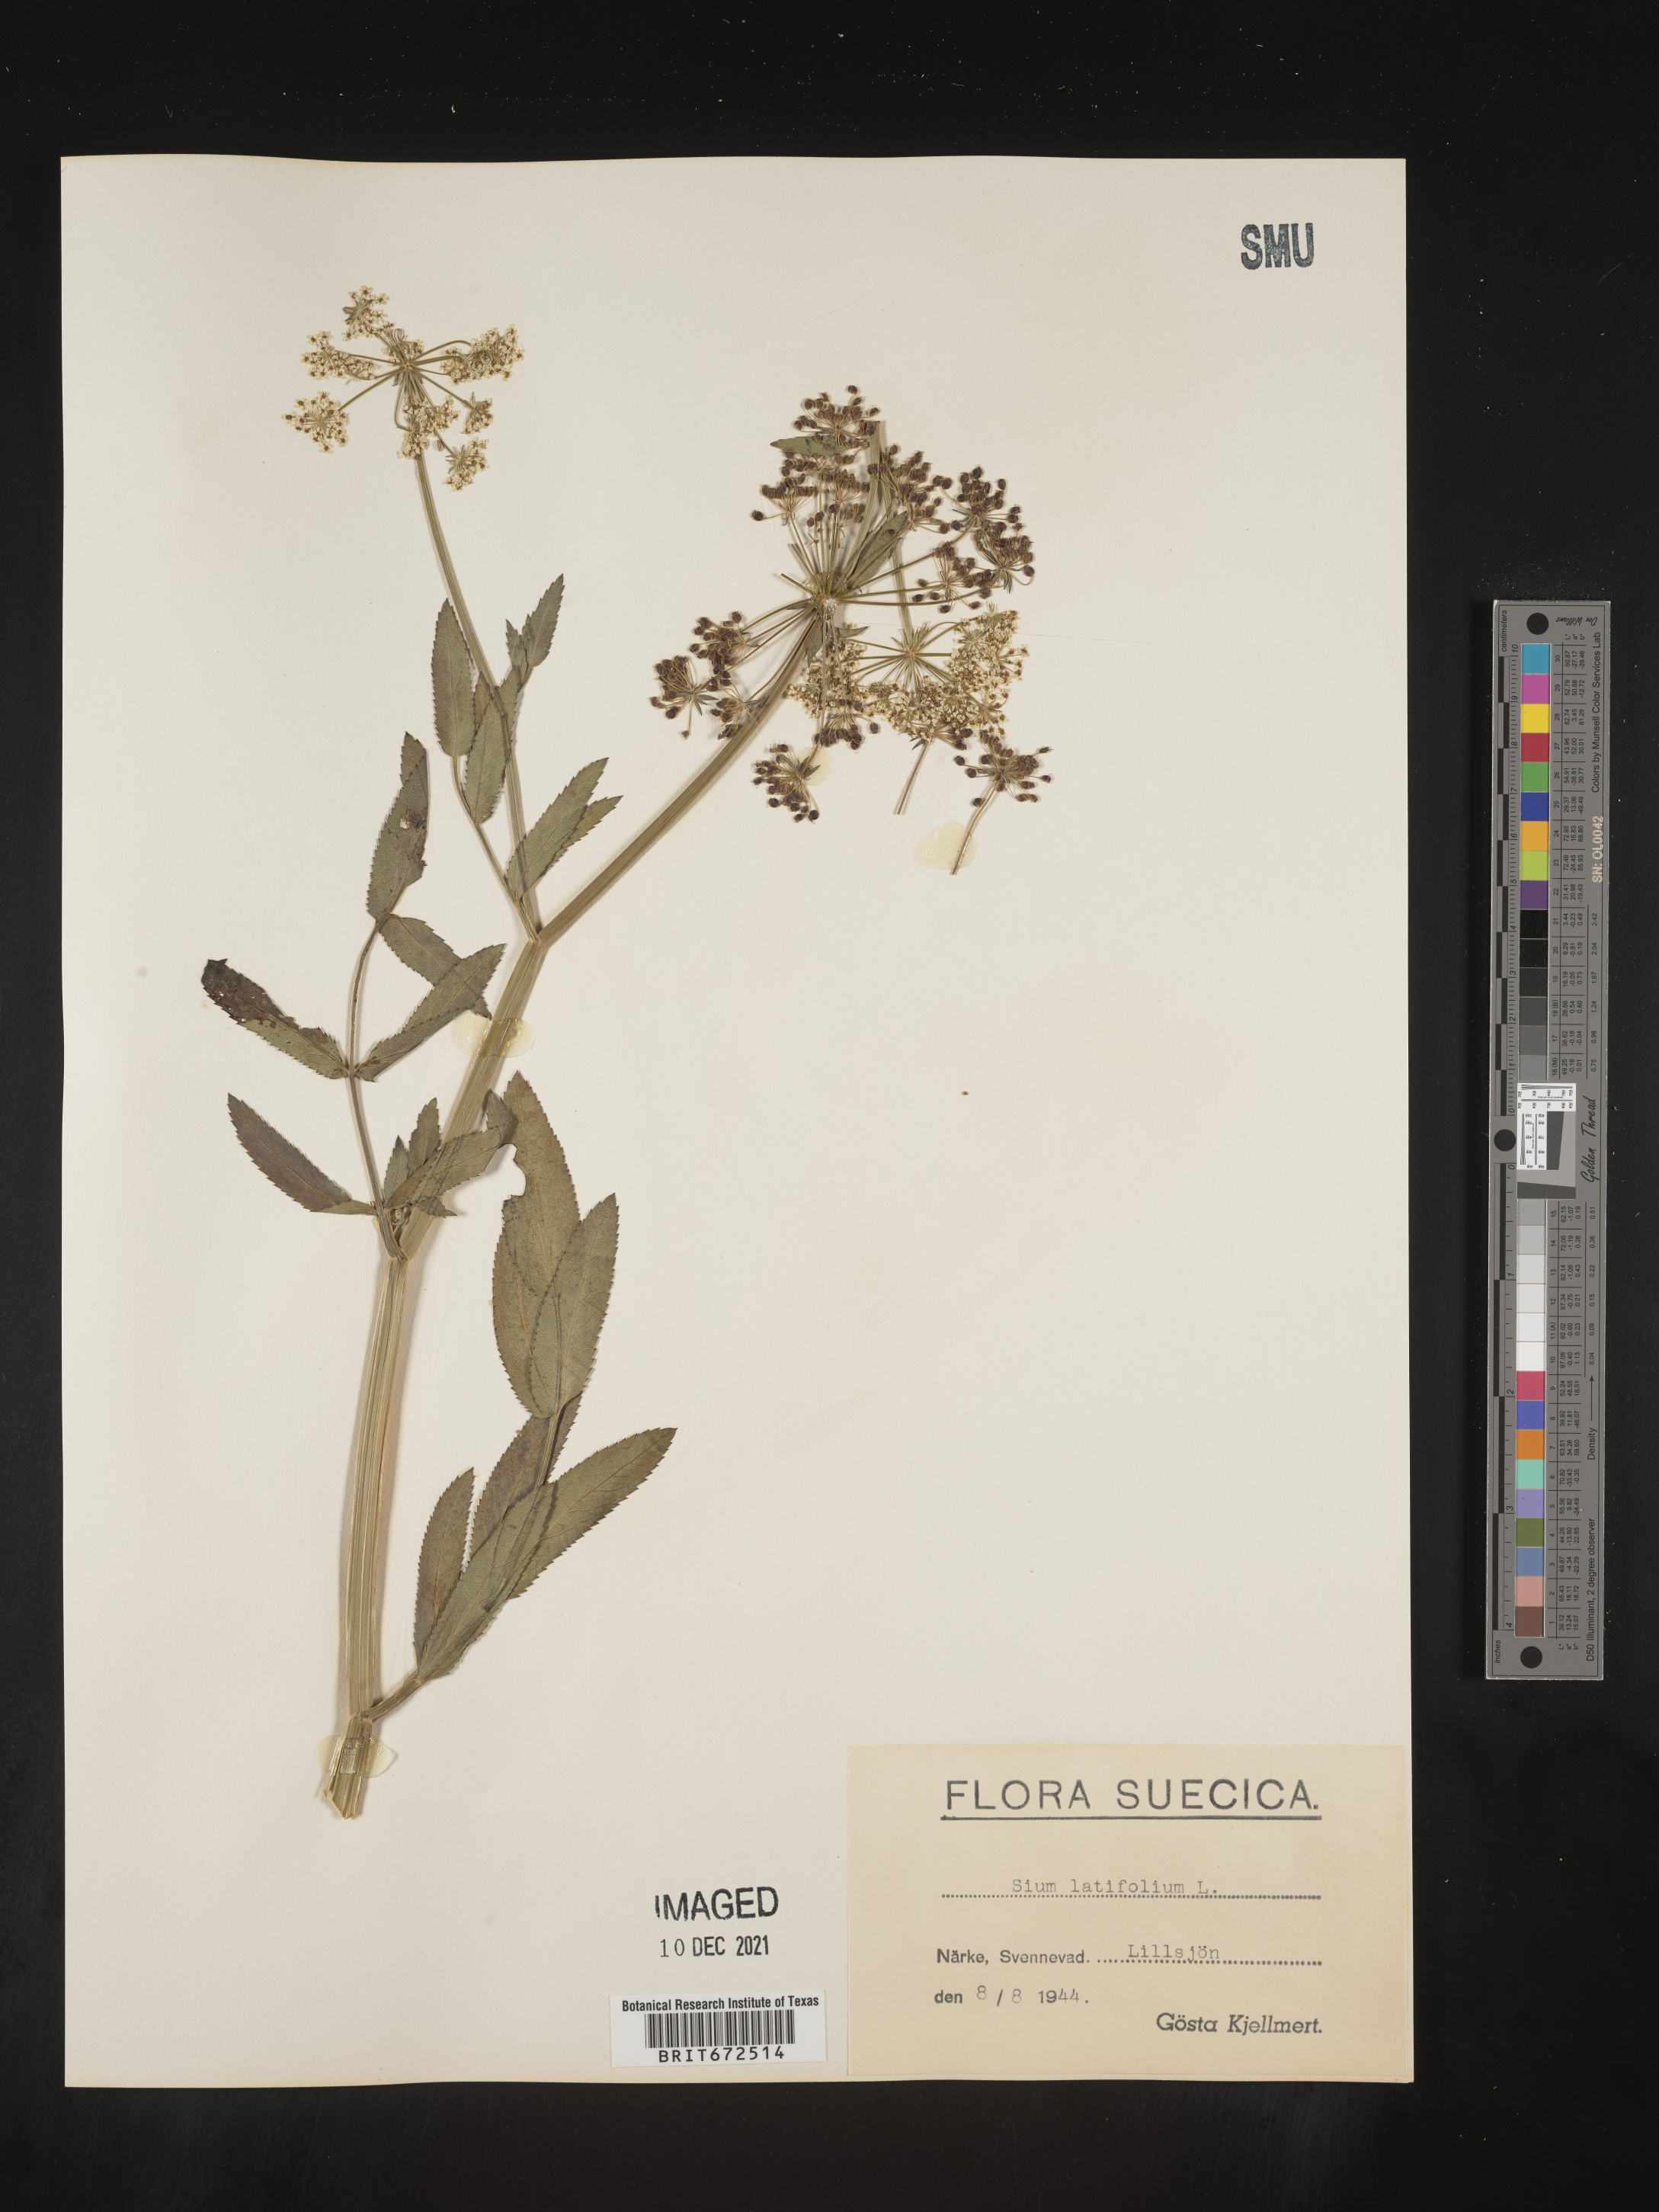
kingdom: Plantae
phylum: Tracheophyta
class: Magnoliopsida
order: Apiales
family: Apiaceae
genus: Sium
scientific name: Sium
